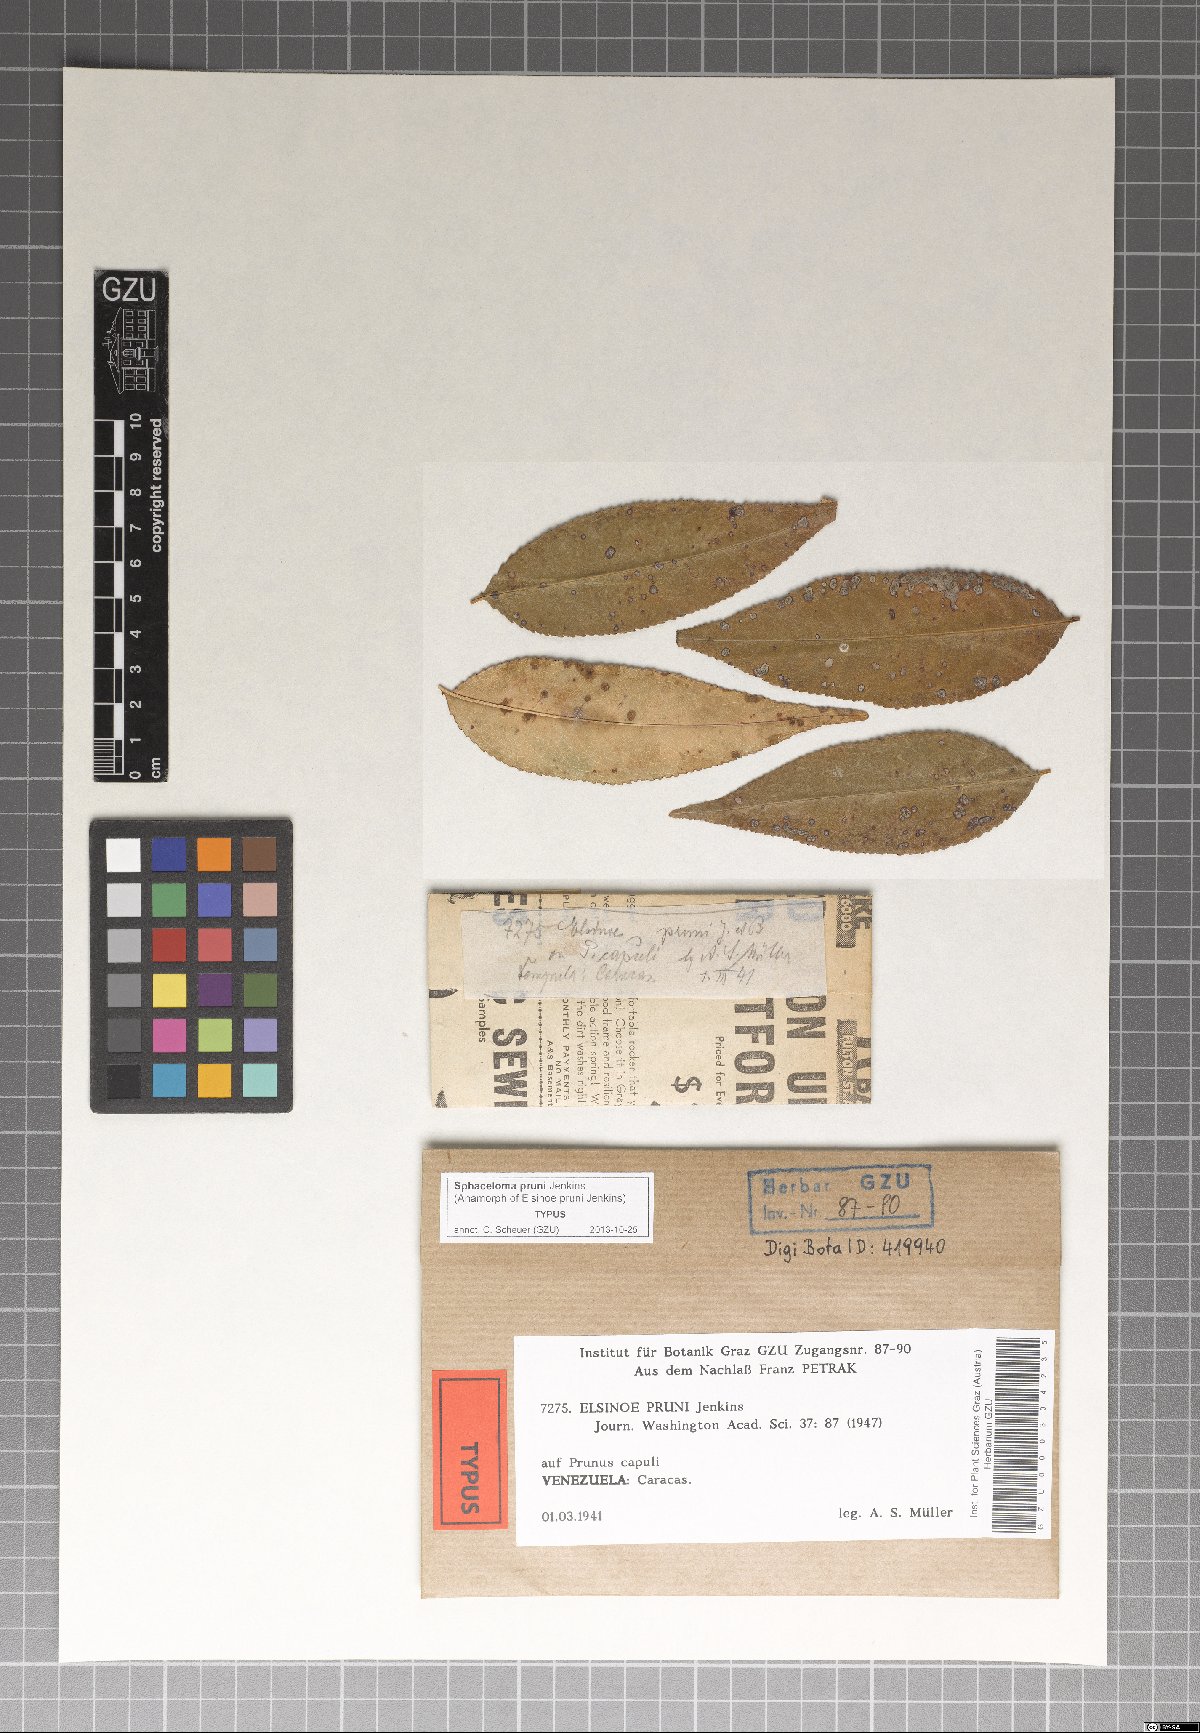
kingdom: Fungi
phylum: Ascomycota
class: Dothideomycetes
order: Myriangiales
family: Elsinoaceae
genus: Elsinoe
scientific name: Elsinoe pruni
